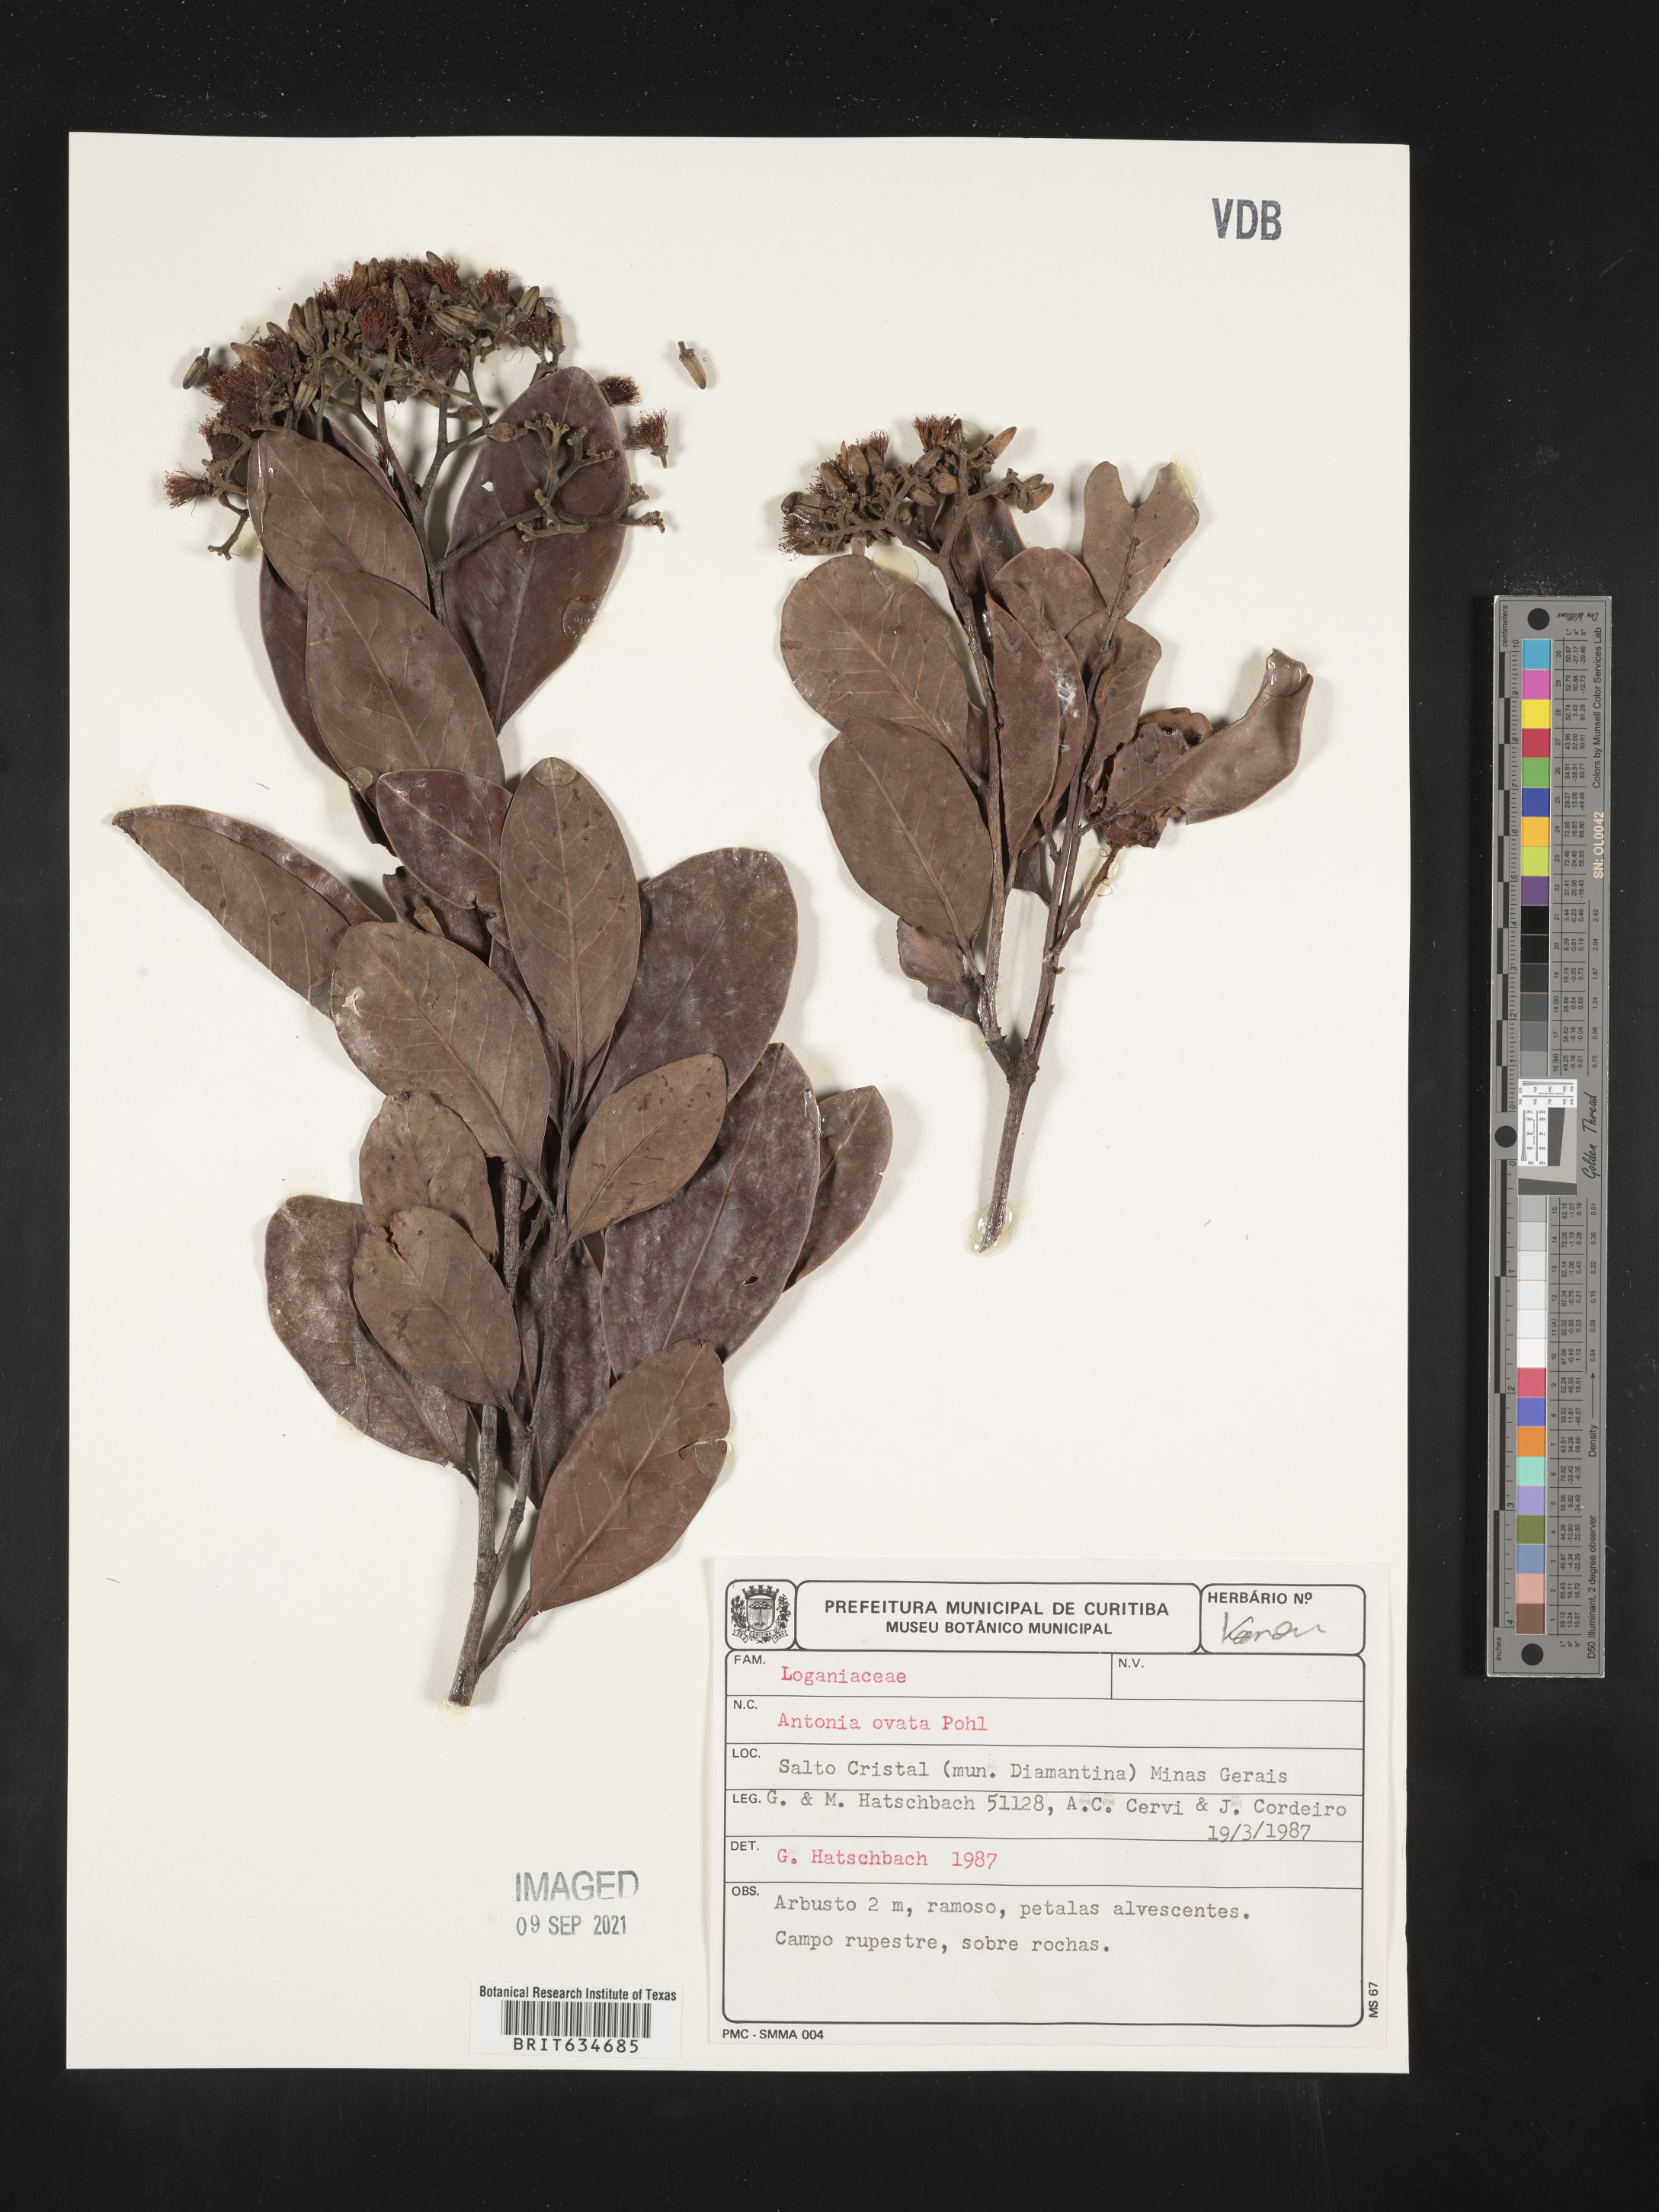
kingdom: Plantae
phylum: Tracheophyta
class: Magnoliopsida
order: Gentianales
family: Loganiaceae
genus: Antonia
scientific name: Antonia
